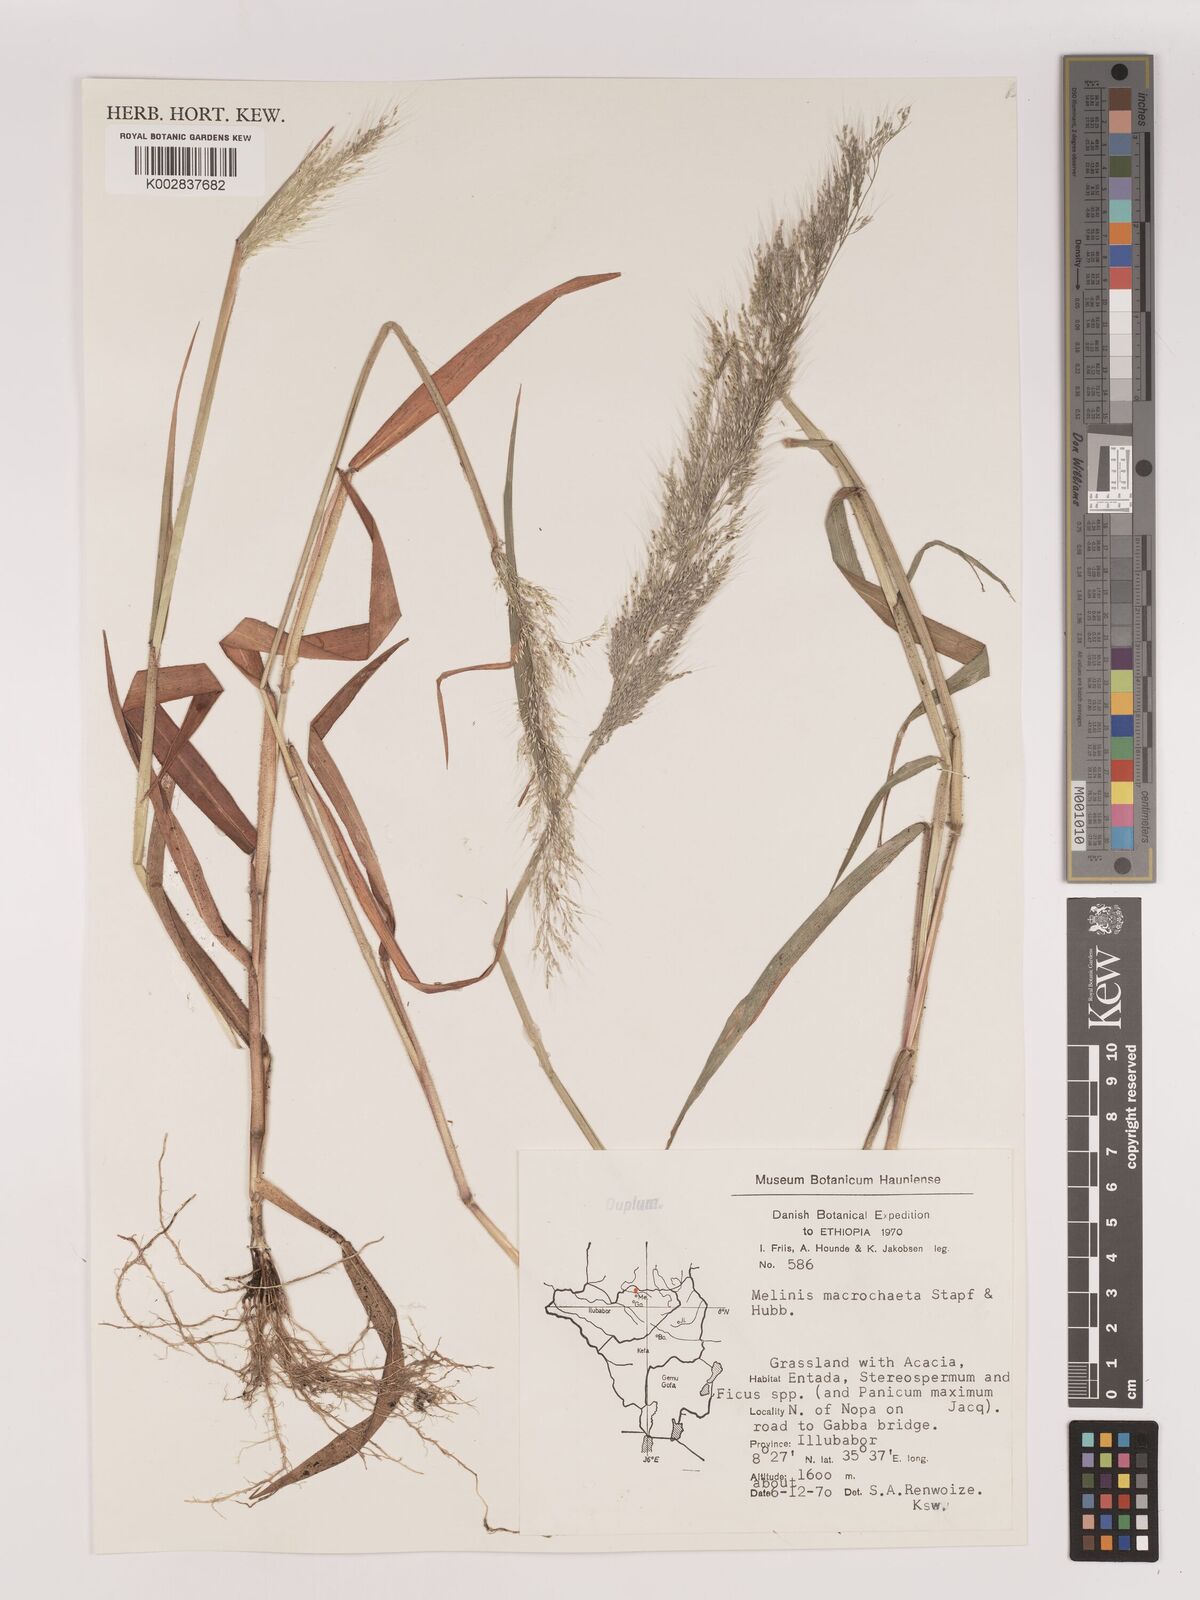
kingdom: Plantae
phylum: Tracheophyta
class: Liliopsida
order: Poales
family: Poaceae
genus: Melinis
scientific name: Melinis macrochaeta
